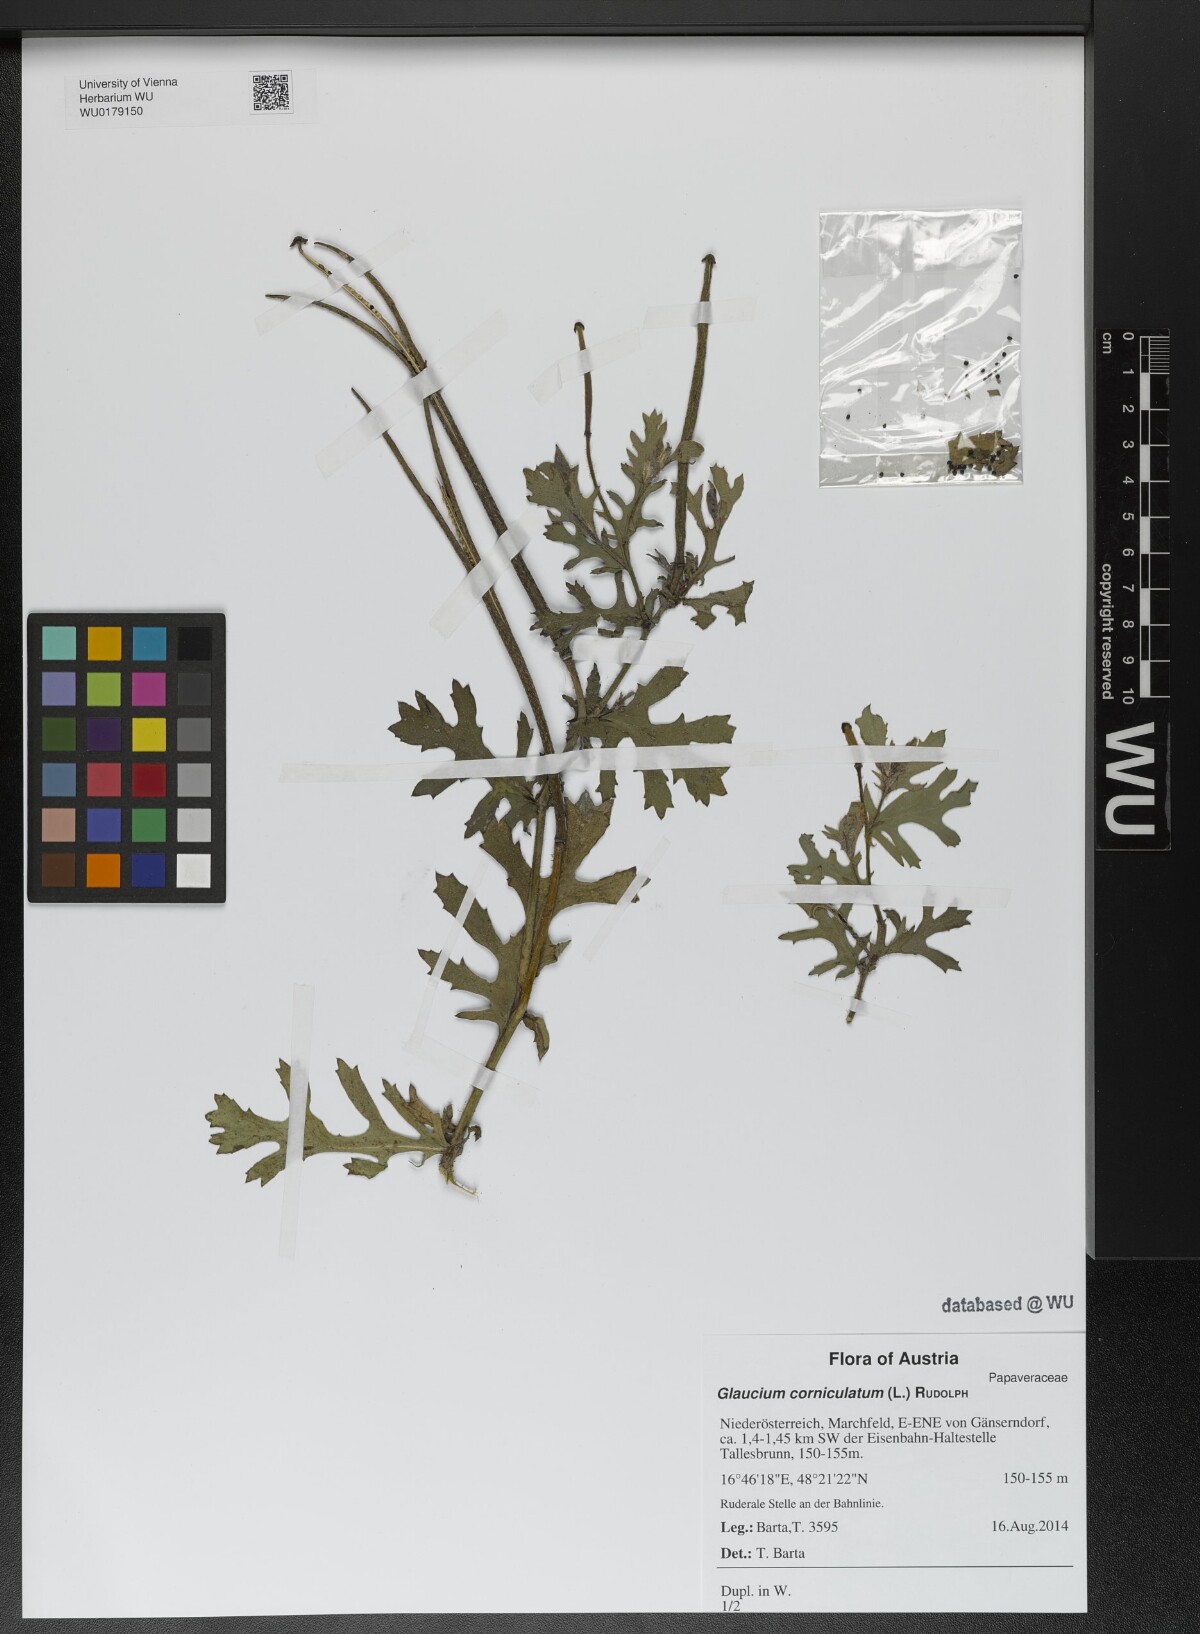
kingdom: Plantae
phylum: Tracheophyta
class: Magnoliopsida
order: Ranunculales
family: Papaveraceae
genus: Glaucium
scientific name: Glaucium corniculatum
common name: Red horned-poppy
